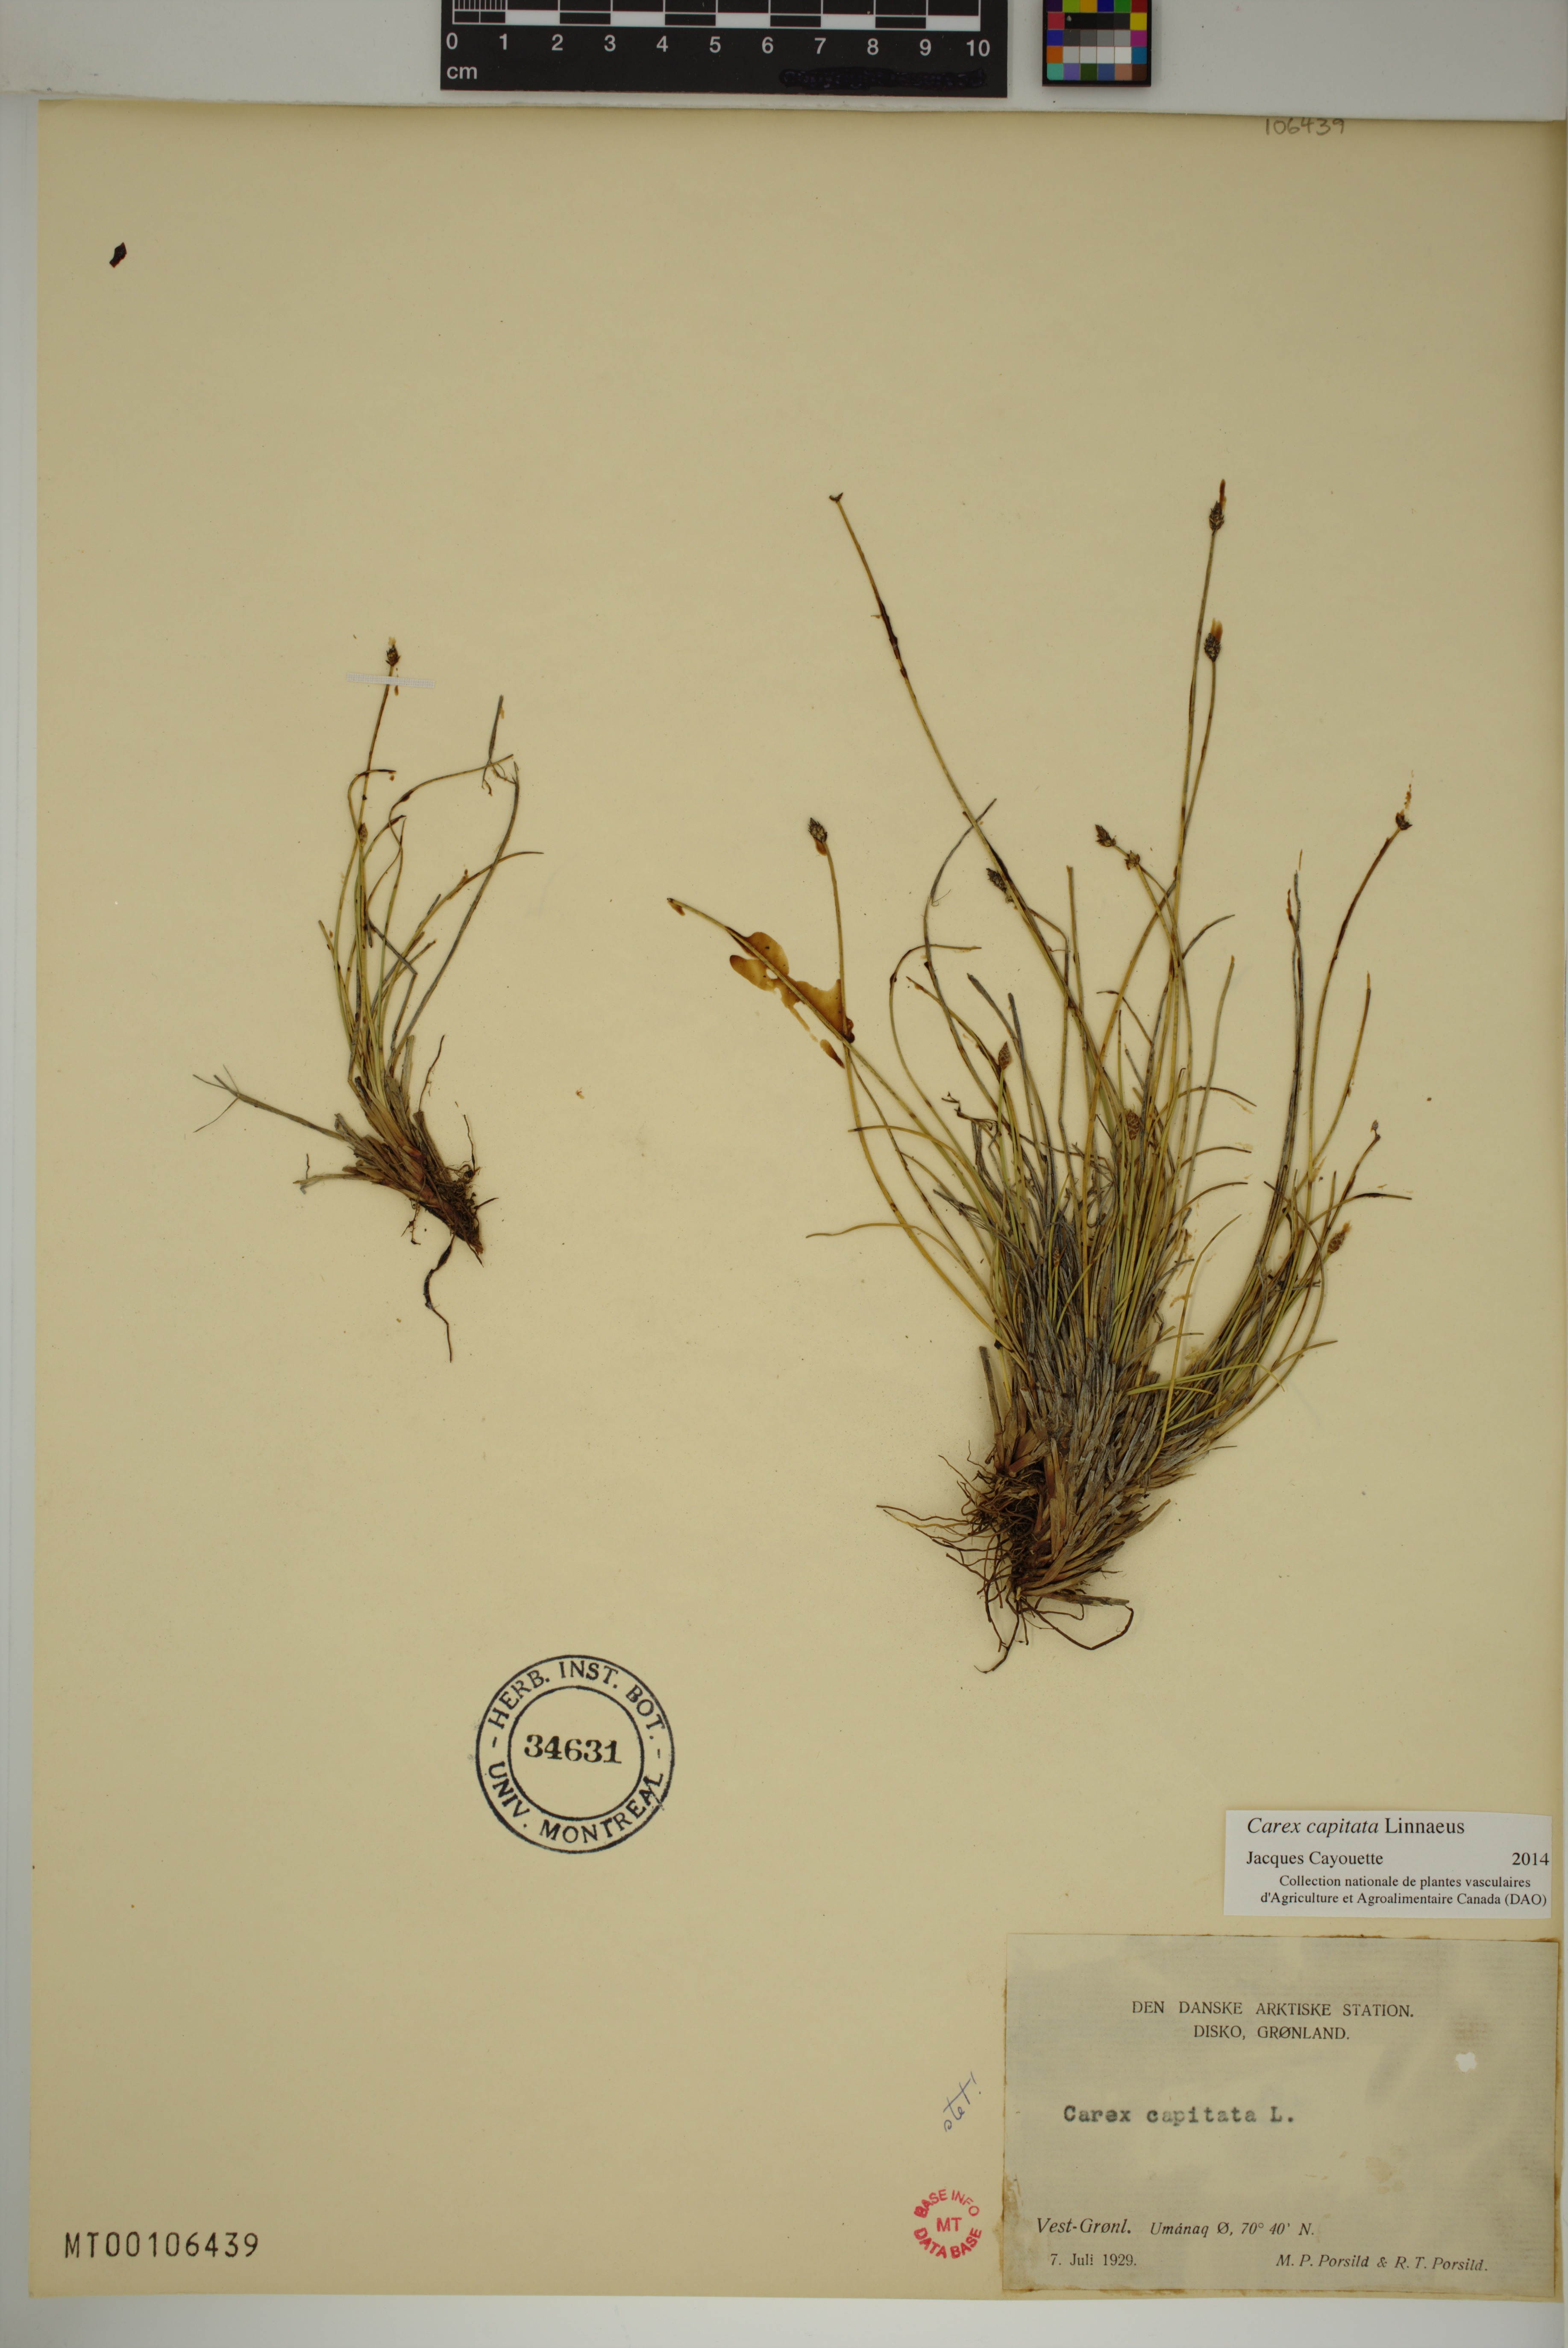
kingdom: Plantae
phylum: Tracheophyta
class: Liliopsida
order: Poales
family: Cyperaceae
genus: Carex
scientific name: Carex capitata
